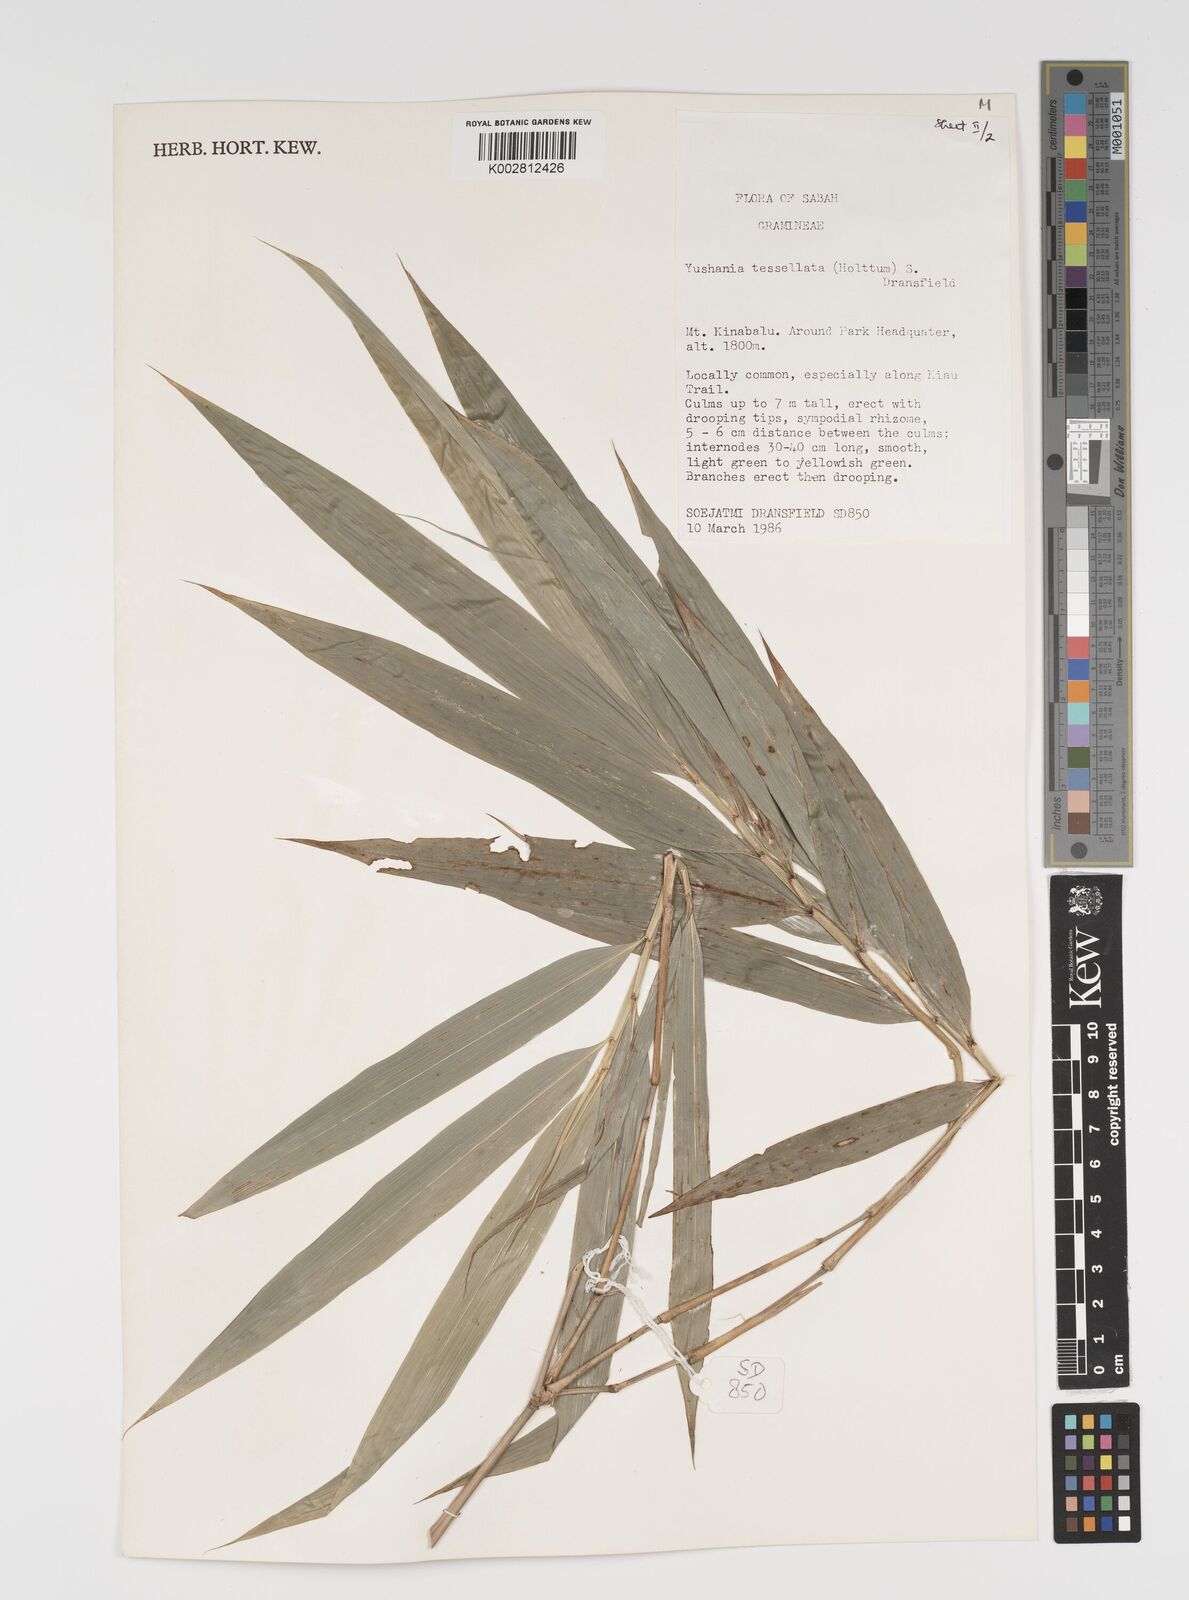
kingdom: Plantae
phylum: Tracheophyta
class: Liliopsida
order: Poales
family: Poaceae
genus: Yushania
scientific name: Yushania
